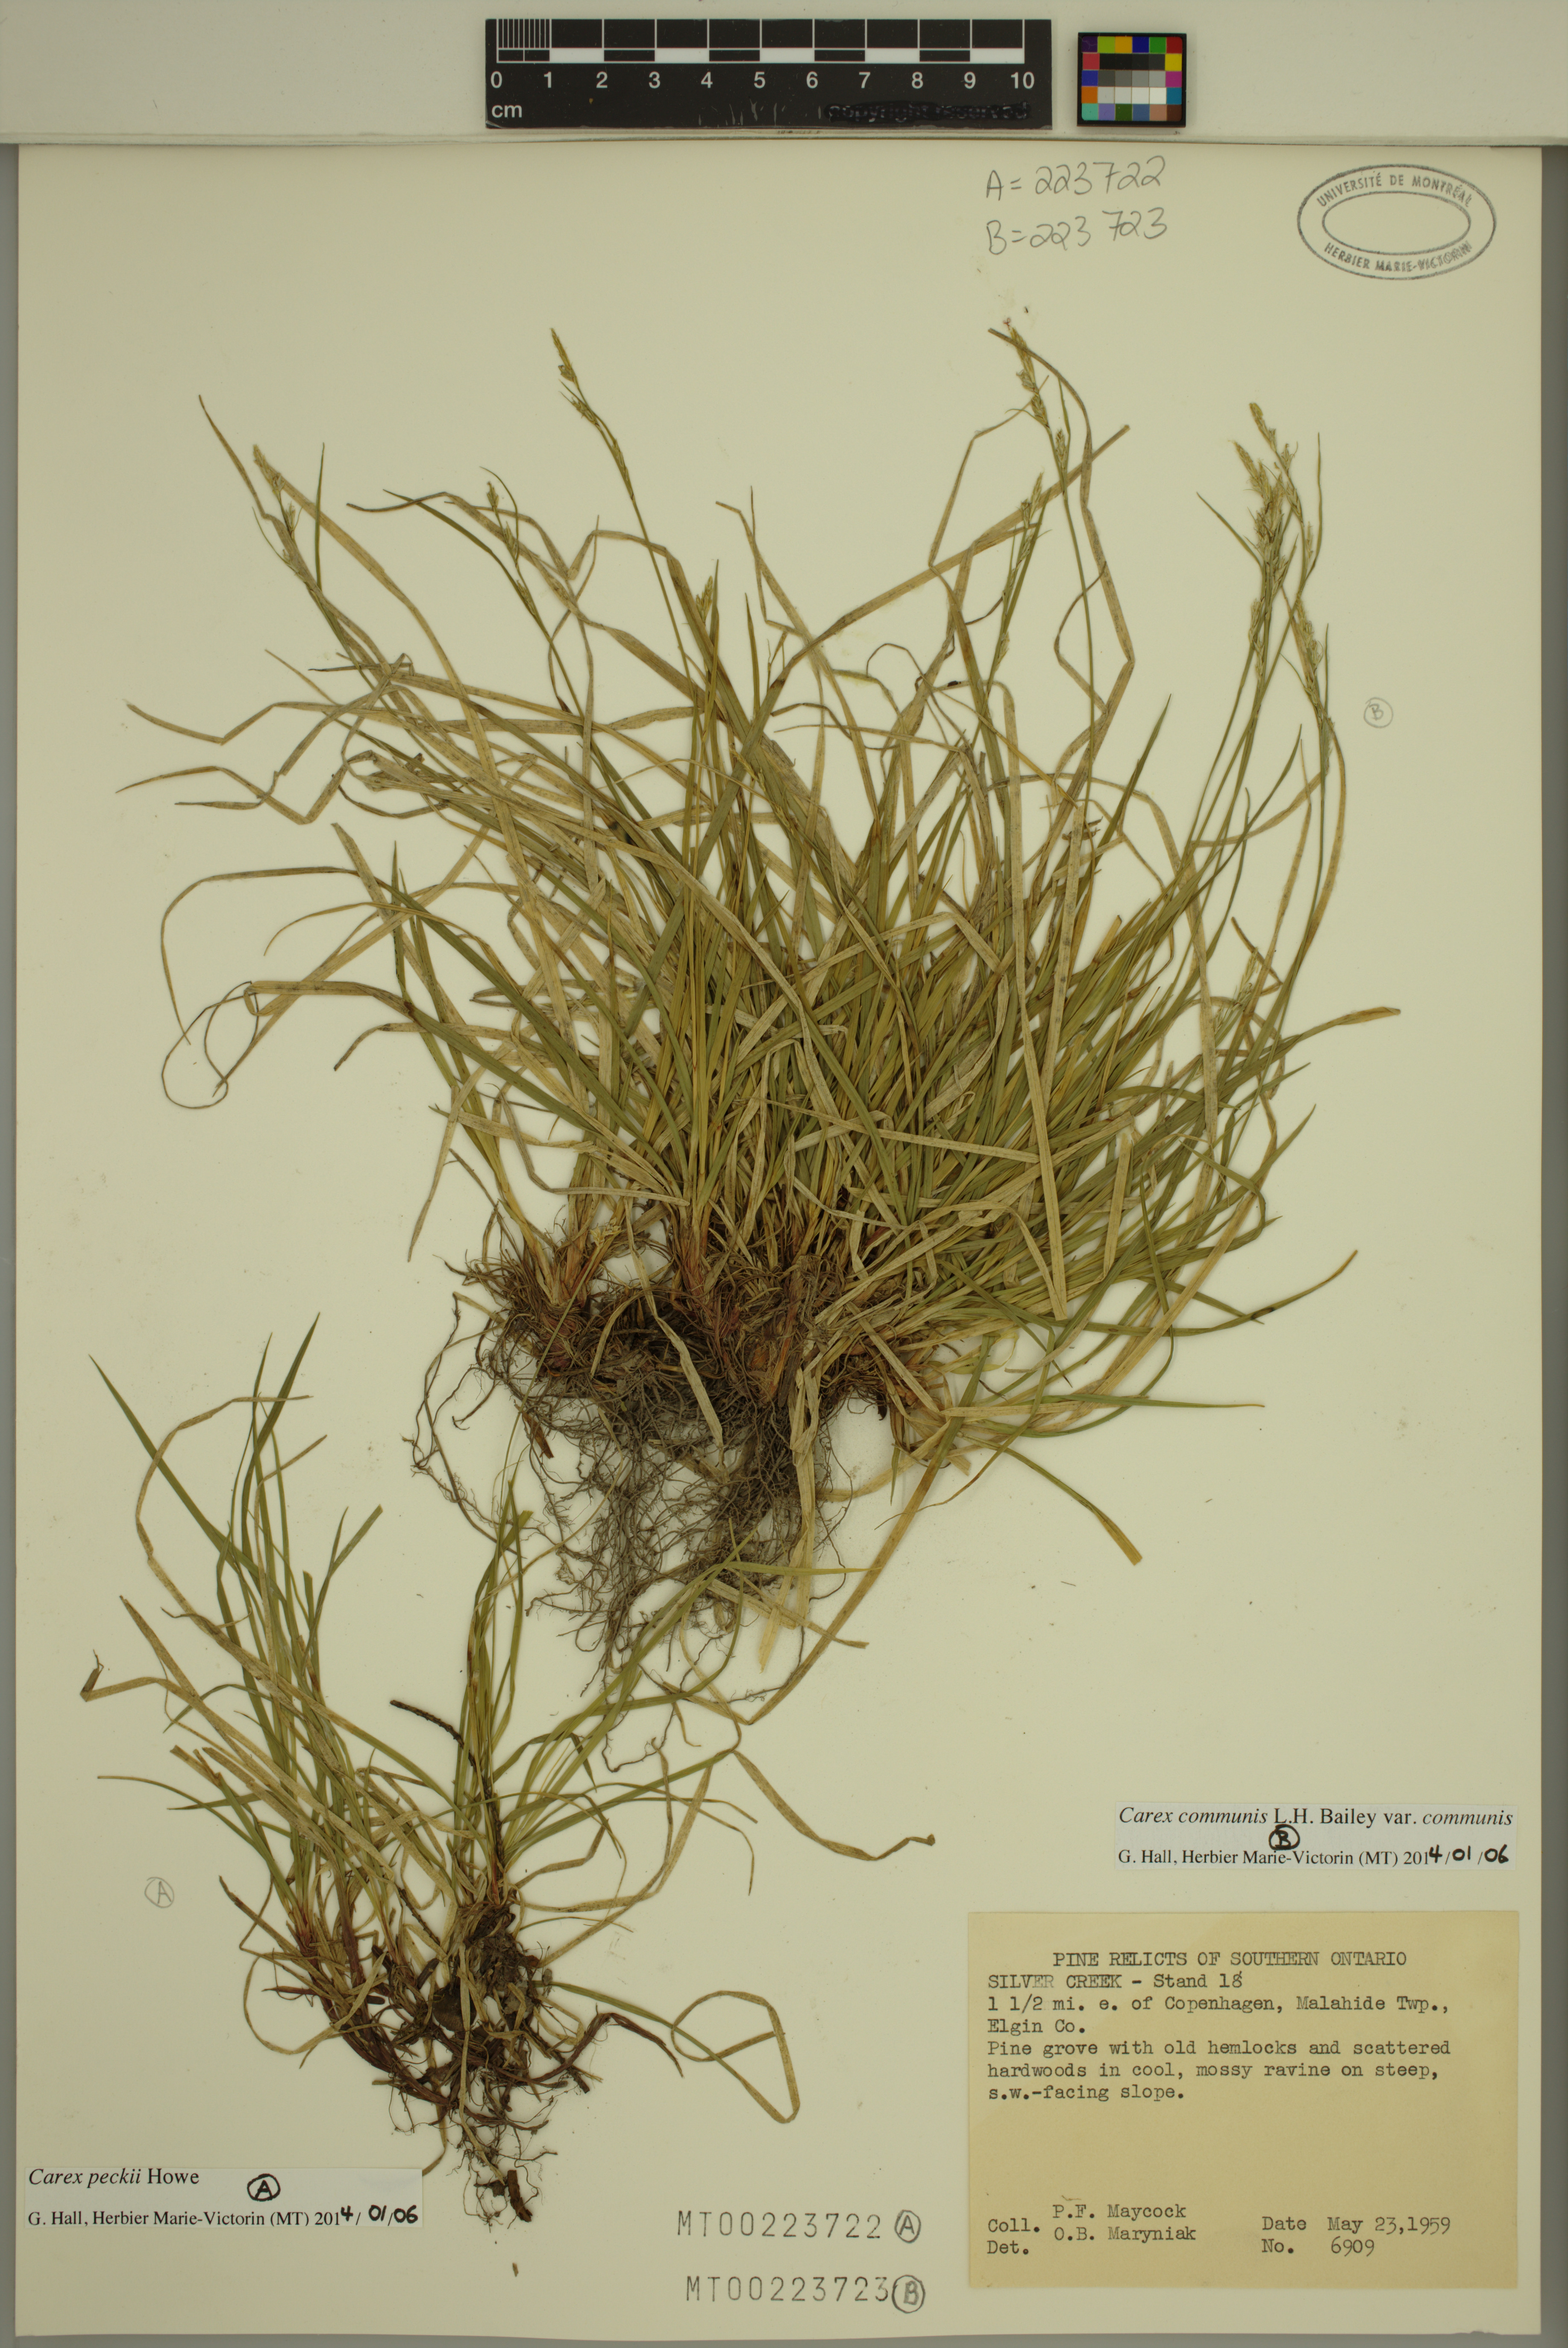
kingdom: Plantae
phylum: Tracheophyta
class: Liliopsida
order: Poales
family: Cyperaceae
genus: Carex
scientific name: Carex peckii
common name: Peck's oak sedge
